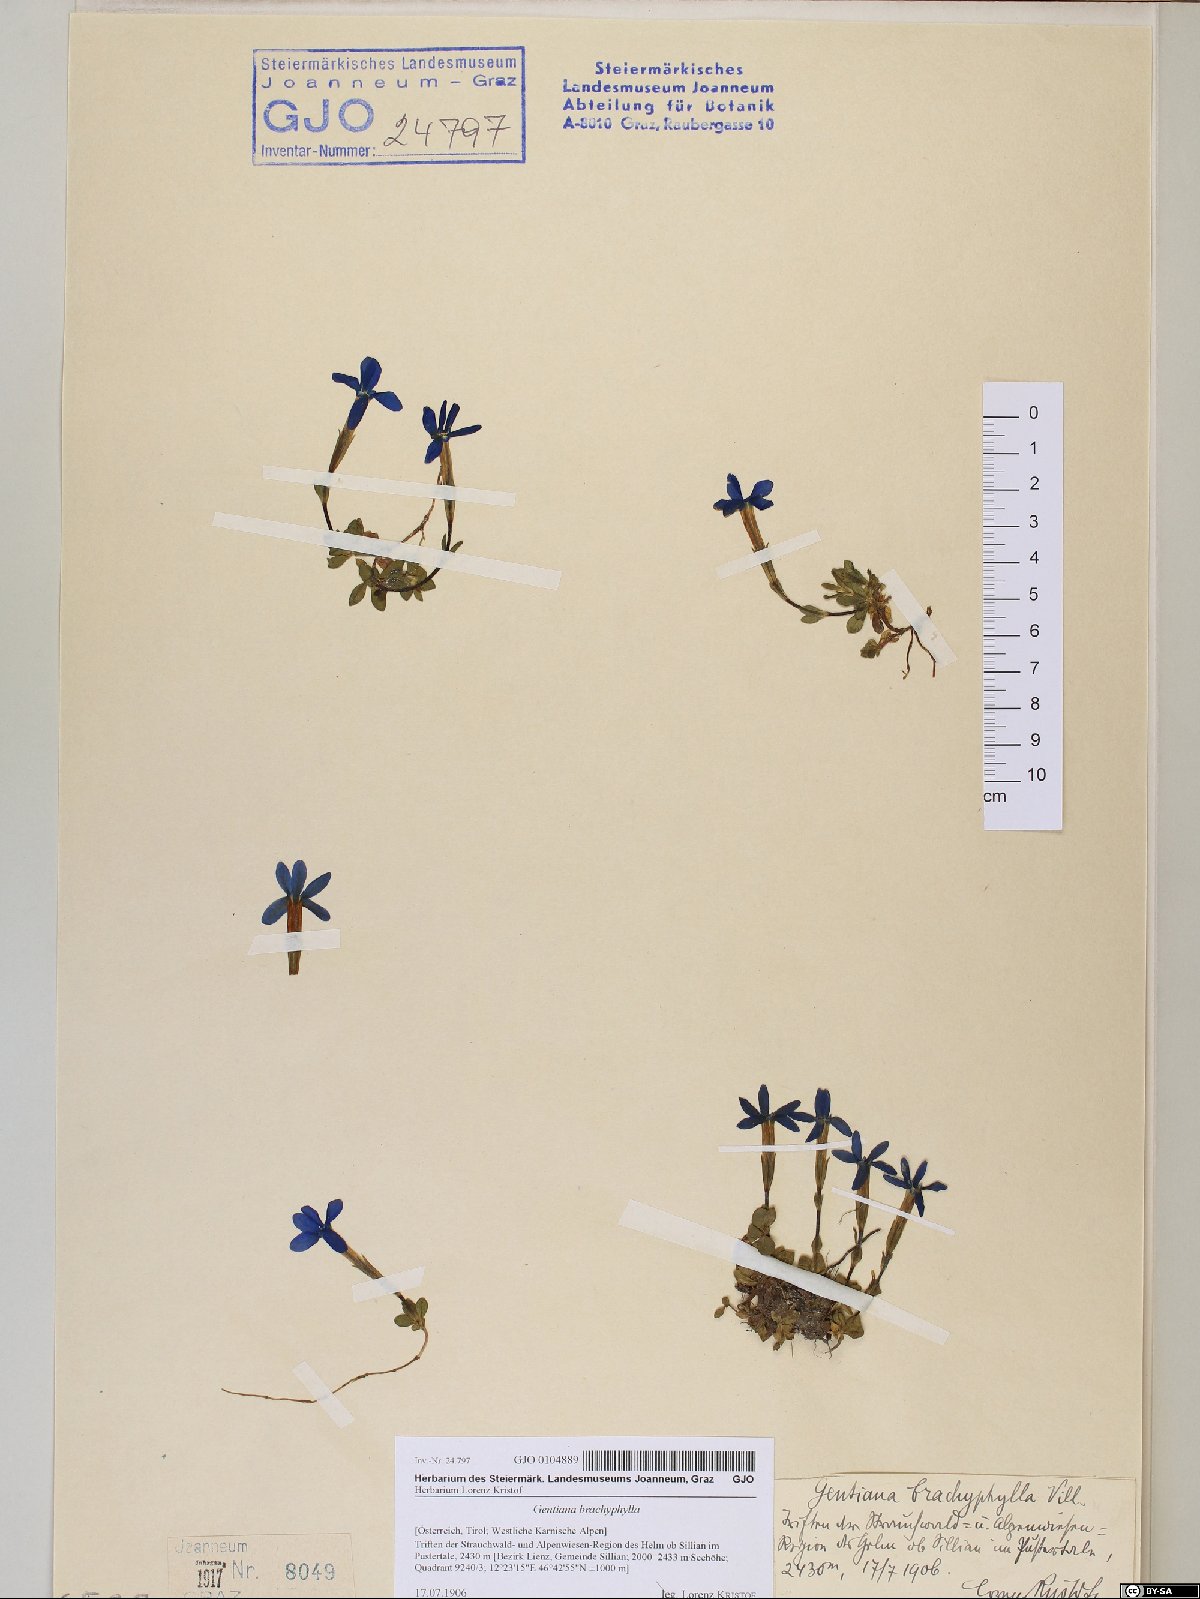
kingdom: Plantae
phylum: Tracheophyta
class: Magnoliopsida
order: Gentianales
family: Gentianaceae
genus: Gentiana
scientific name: Gentiana brachyphylla
